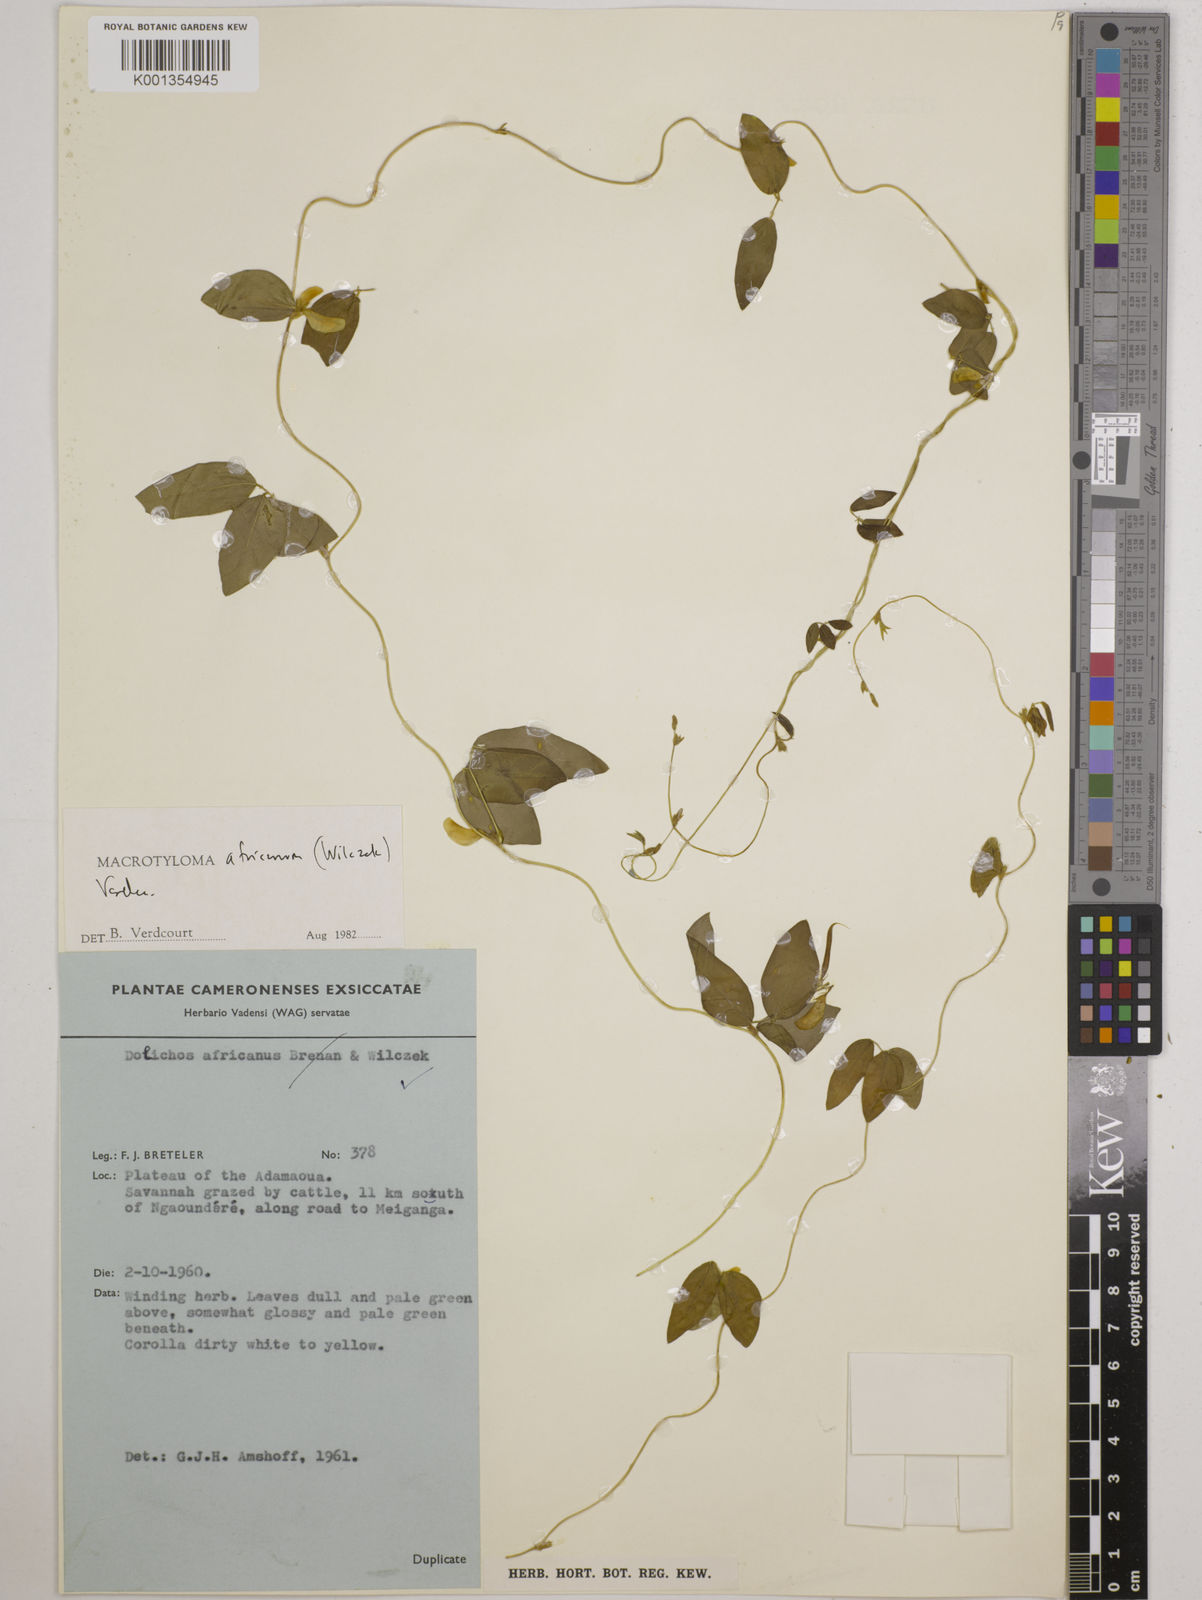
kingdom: Plantae
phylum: Tracheophyta
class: Magnoliopsida
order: Fabales
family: Fabaceae
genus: Macrotyloma
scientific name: Macrotyloma africanum
